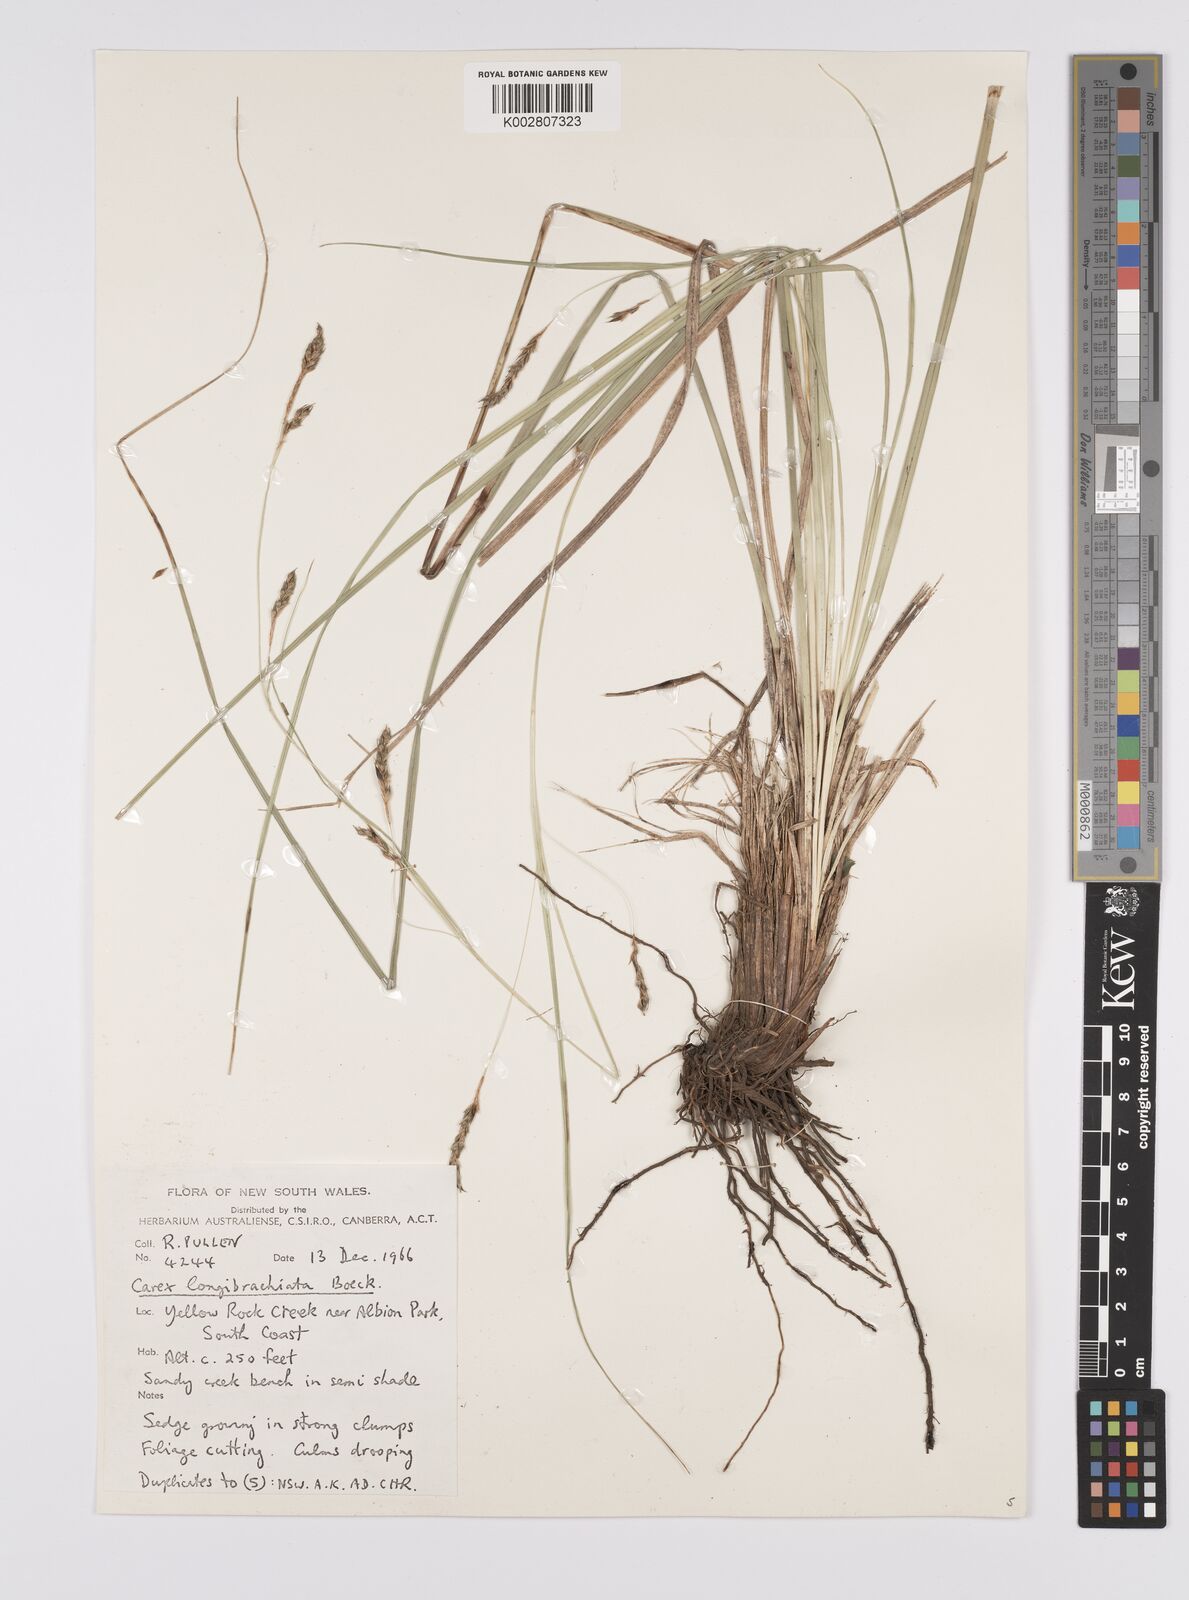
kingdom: Plantae
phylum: Tracheophyta
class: Liliopsida
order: Poales
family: Cyperaceae
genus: Carex
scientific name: Carex pseudocyperus
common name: Cyperus sedge
